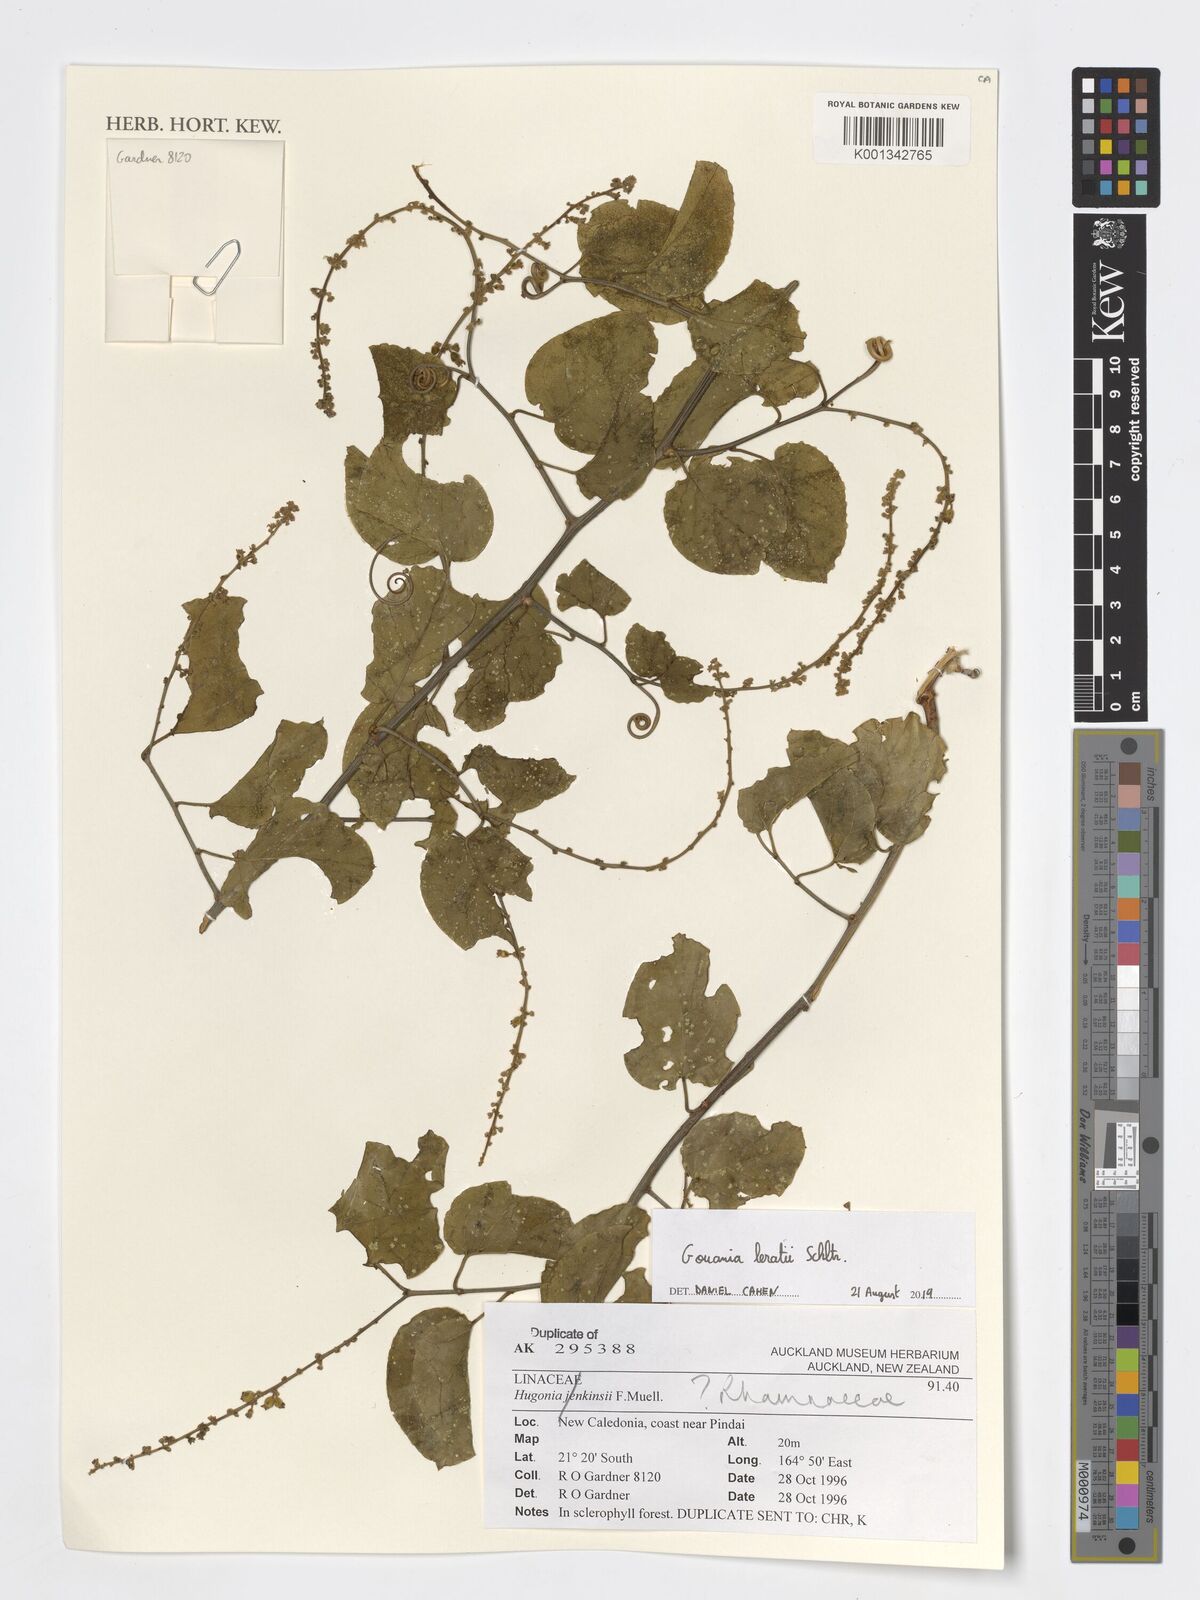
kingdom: Plantae
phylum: Tracheophyta
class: Magnoliopsida
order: Rosales
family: Rhamnaceae
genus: Gouania
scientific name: Gouania leratii
